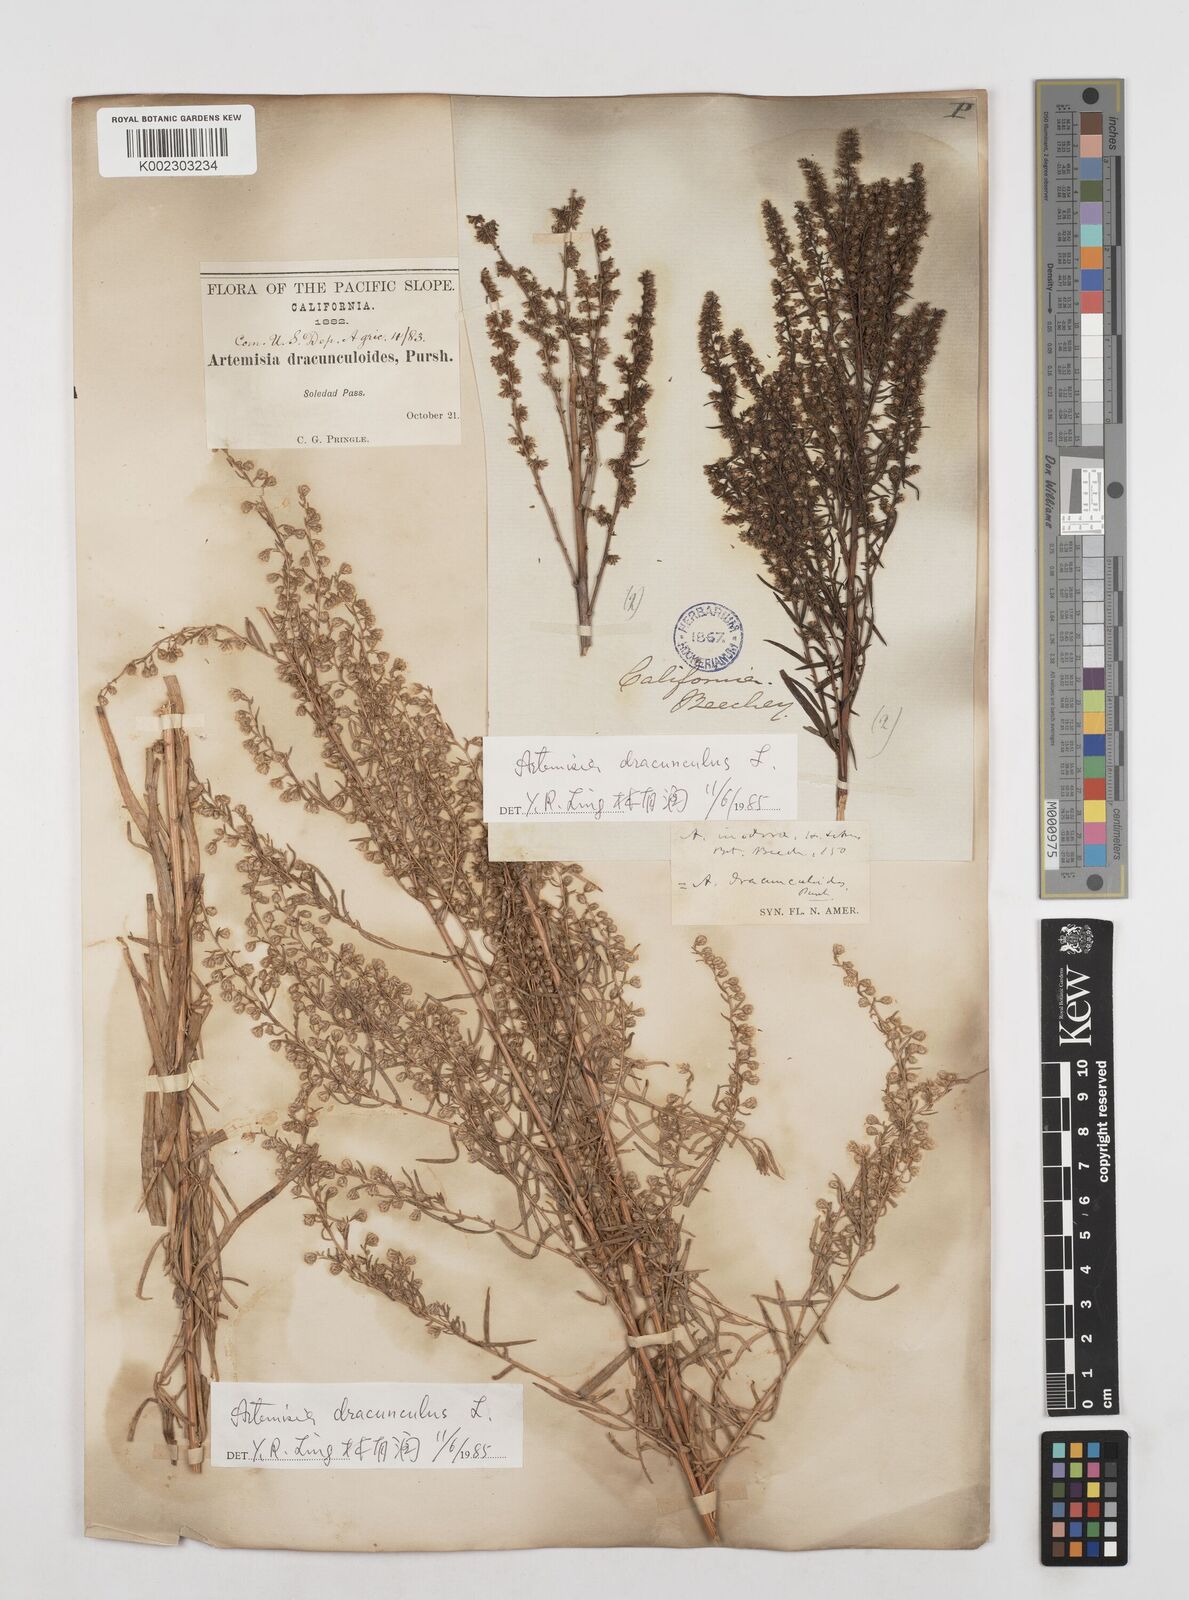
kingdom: Plantae
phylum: Tracheophyta
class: Magnoliopsida
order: Asterales
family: Asteraceae
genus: Artemisia
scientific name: Artemisia dracunculus
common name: Tarragon
